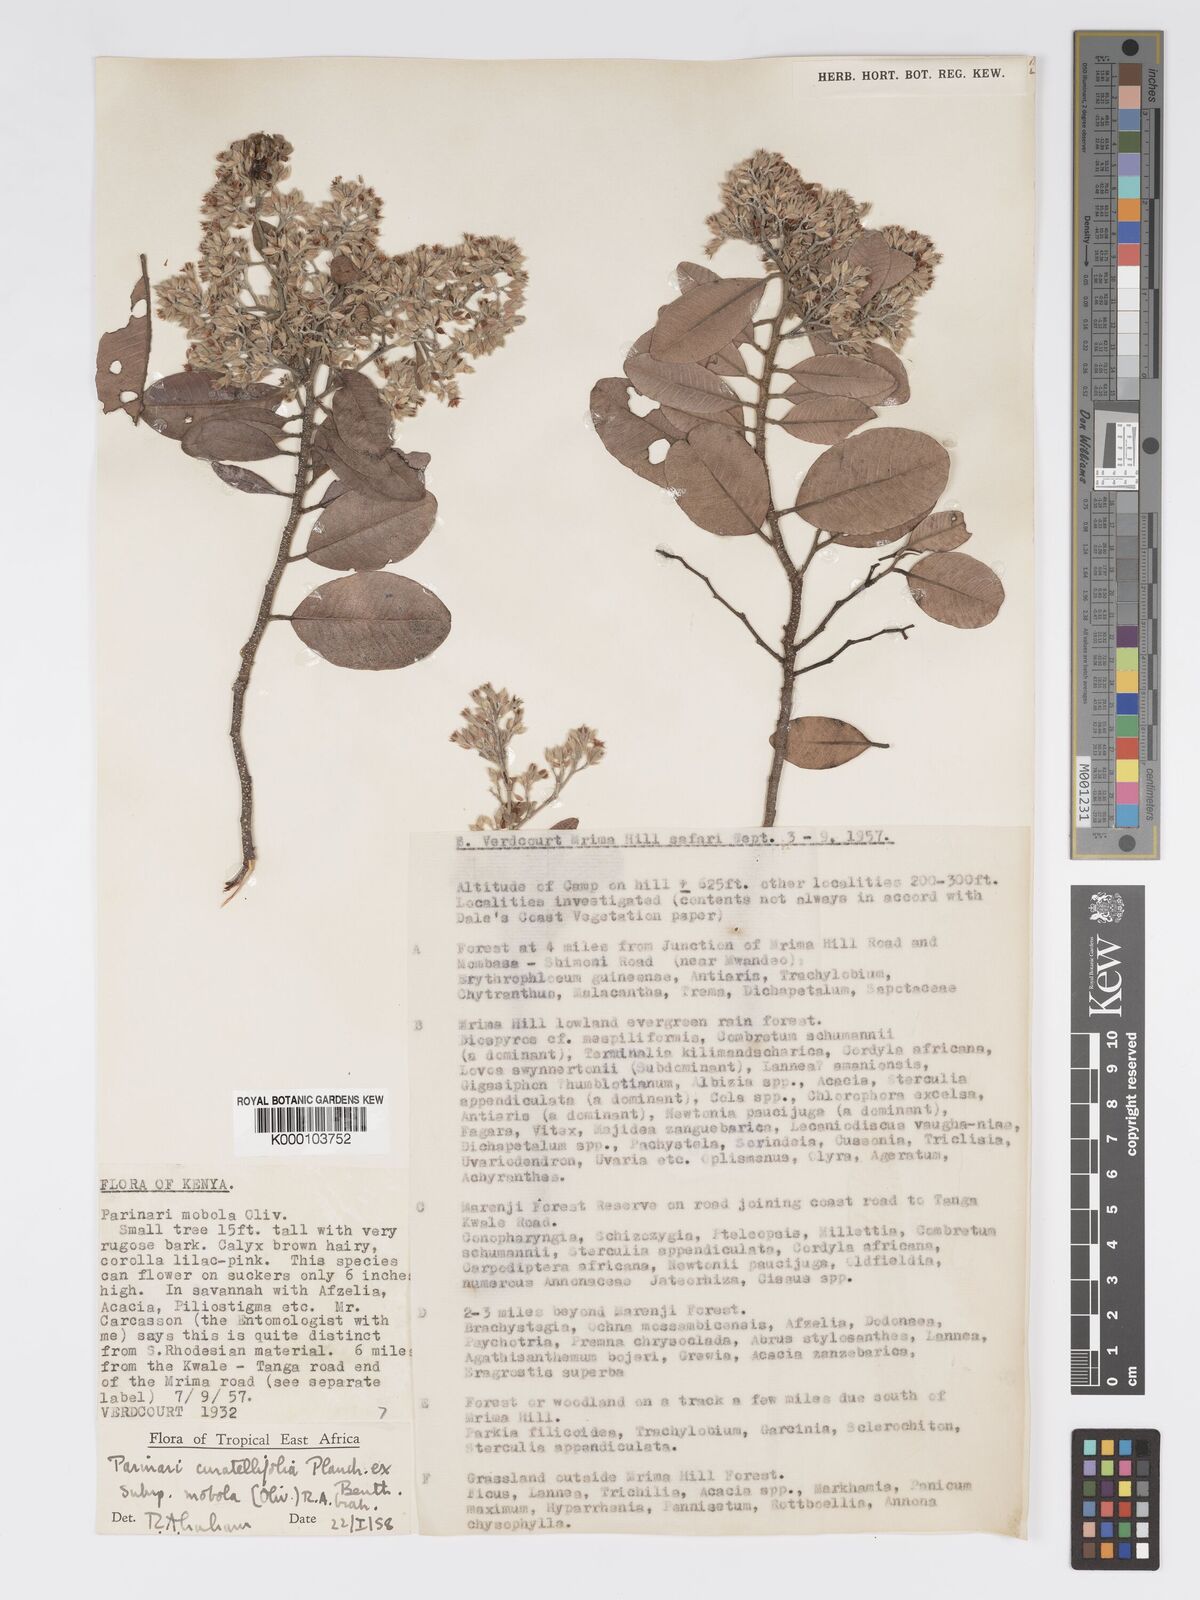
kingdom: Plantae
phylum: Tracheophyta
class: Magnoliopsida
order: Malpighiales
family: Chrysobalanaceae
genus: Parinari
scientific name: Parinari curatellifolia
